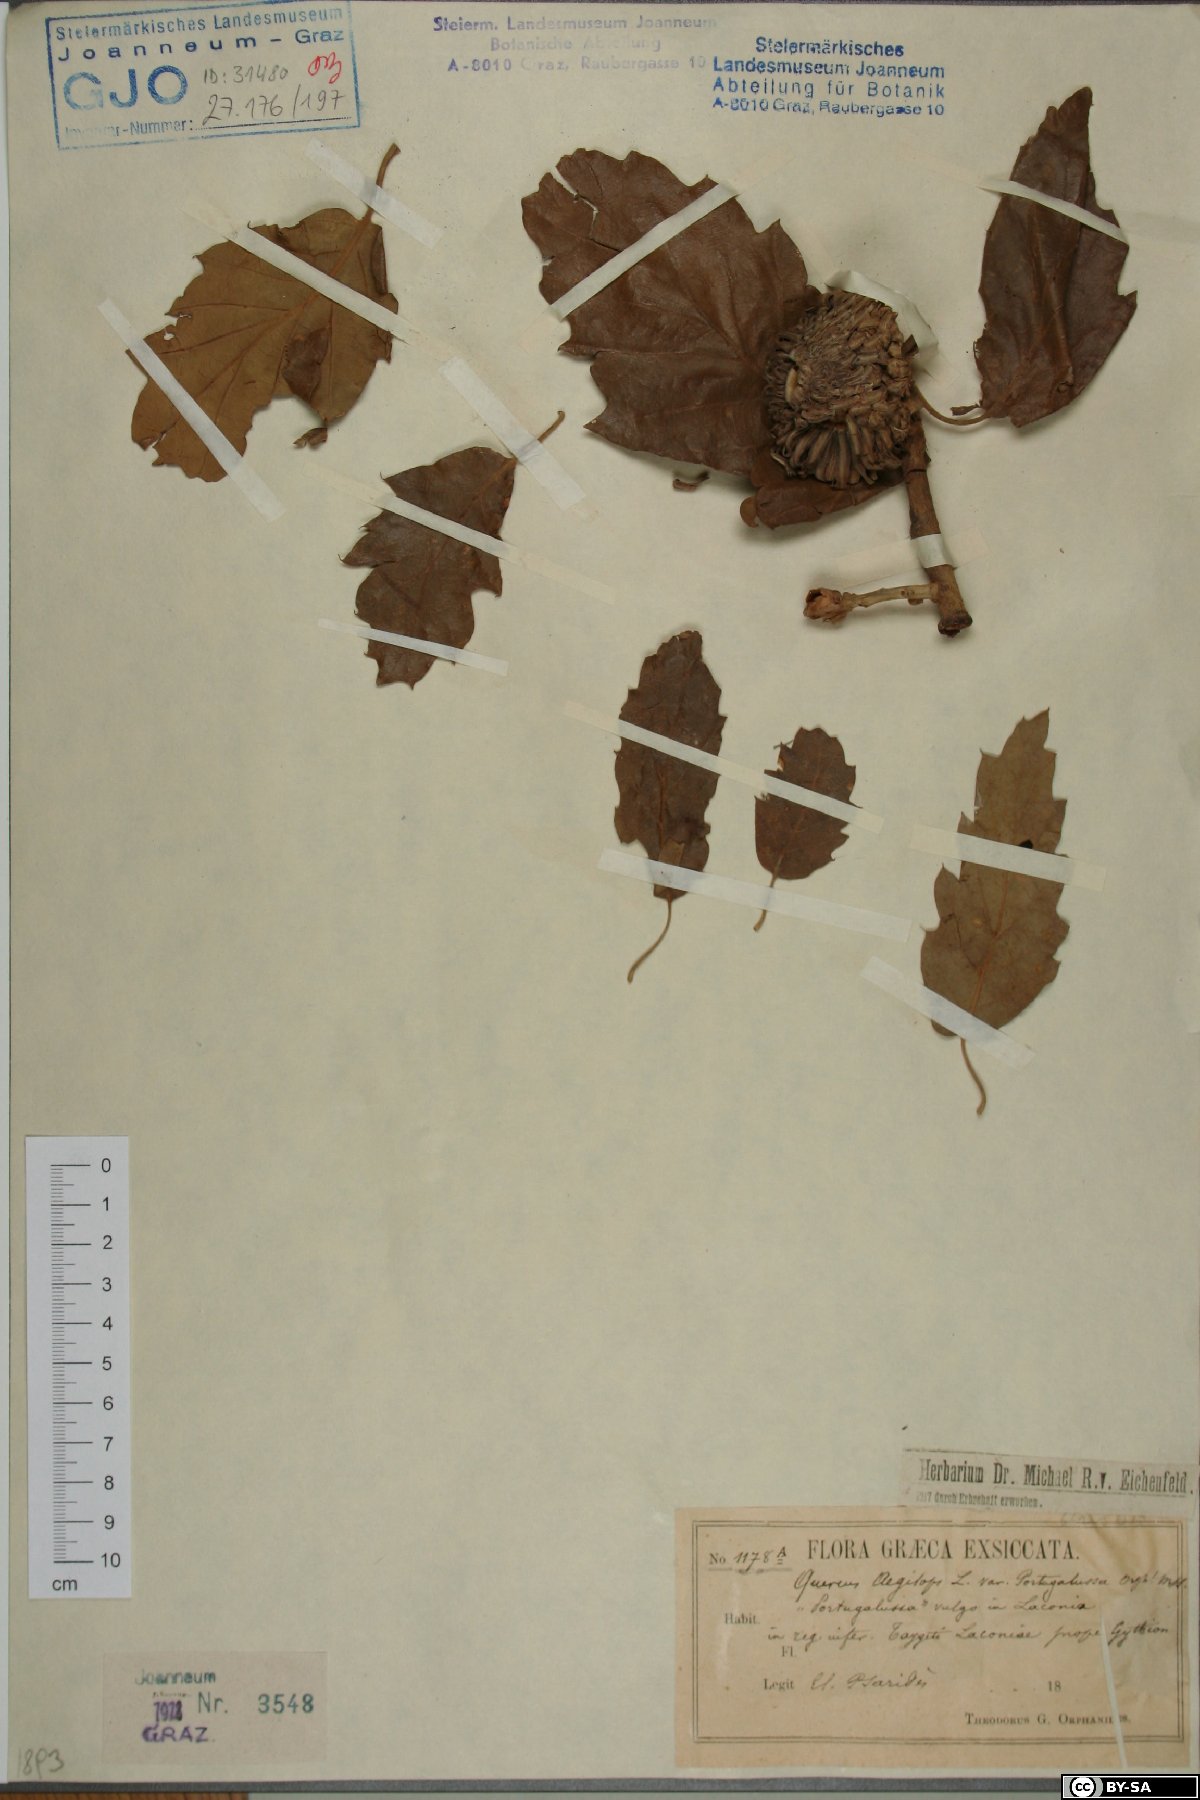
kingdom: Plantae
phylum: Tracheophyta
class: Magnoliopsida
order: Fagales
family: Fagaceae
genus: Quercus
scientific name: Quercus
